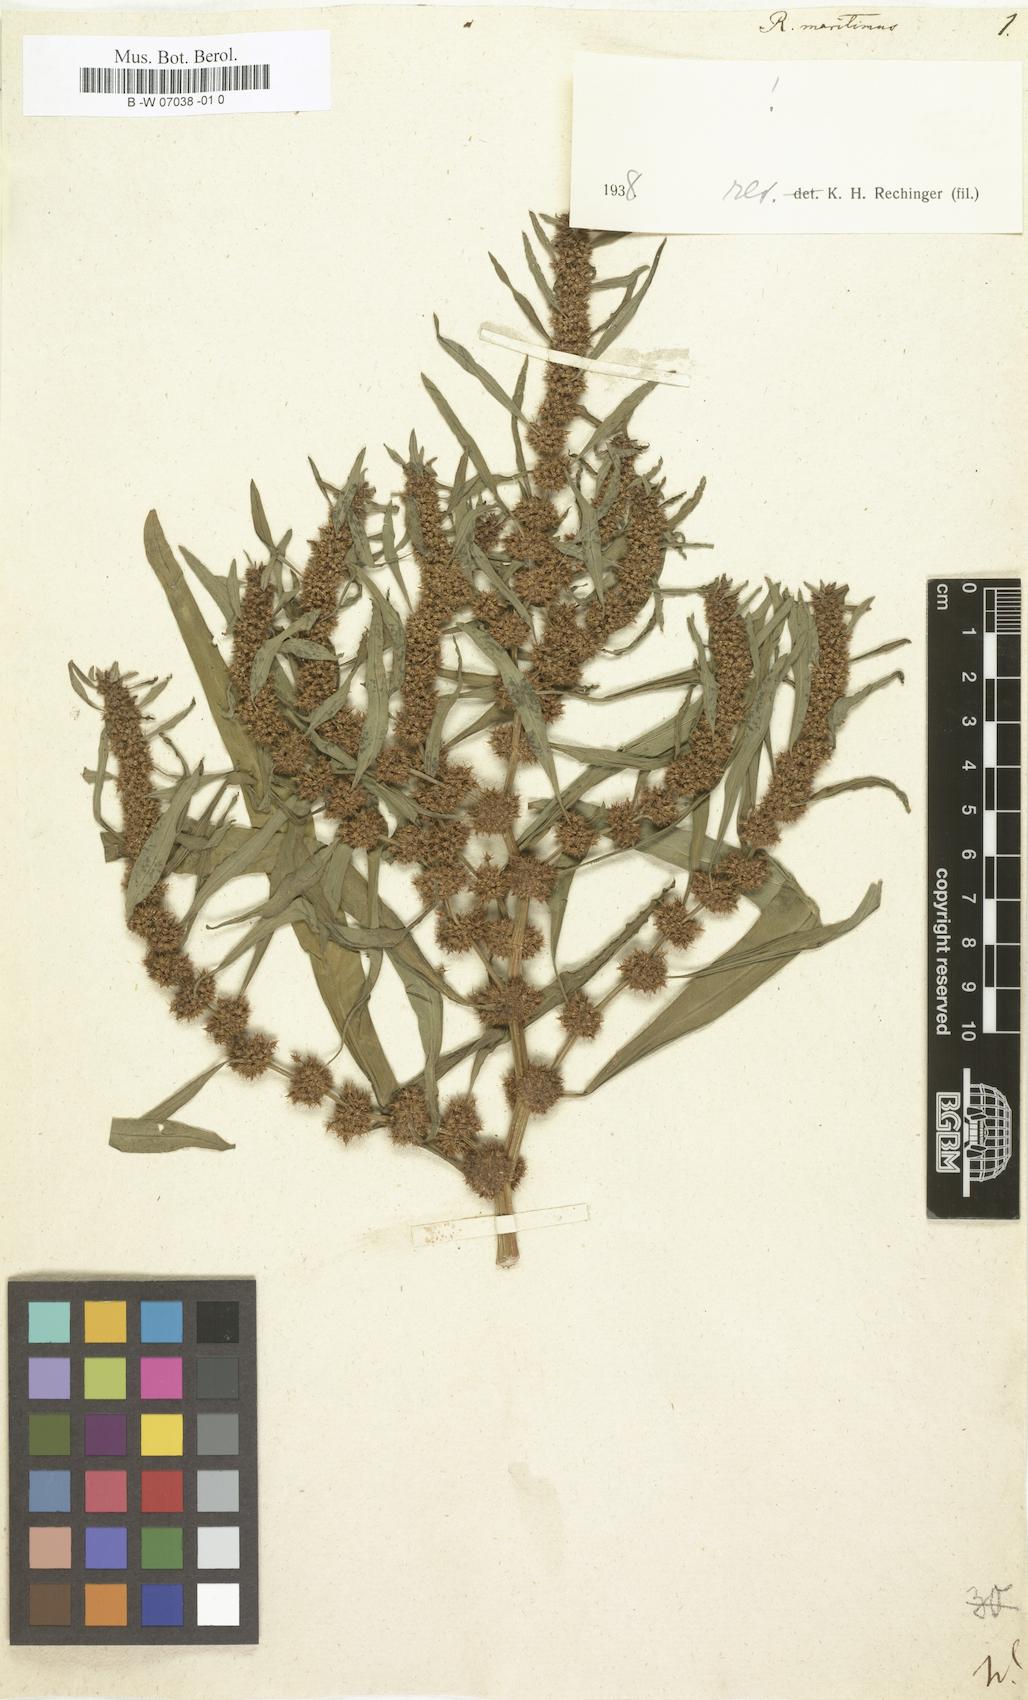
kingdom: Plantae
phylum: Tracheophyta
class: Magnoliopsida
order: Caryophyllales
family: Polygonaceae
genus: Rumex
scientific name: Rumex maritimus
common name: Golden dock
